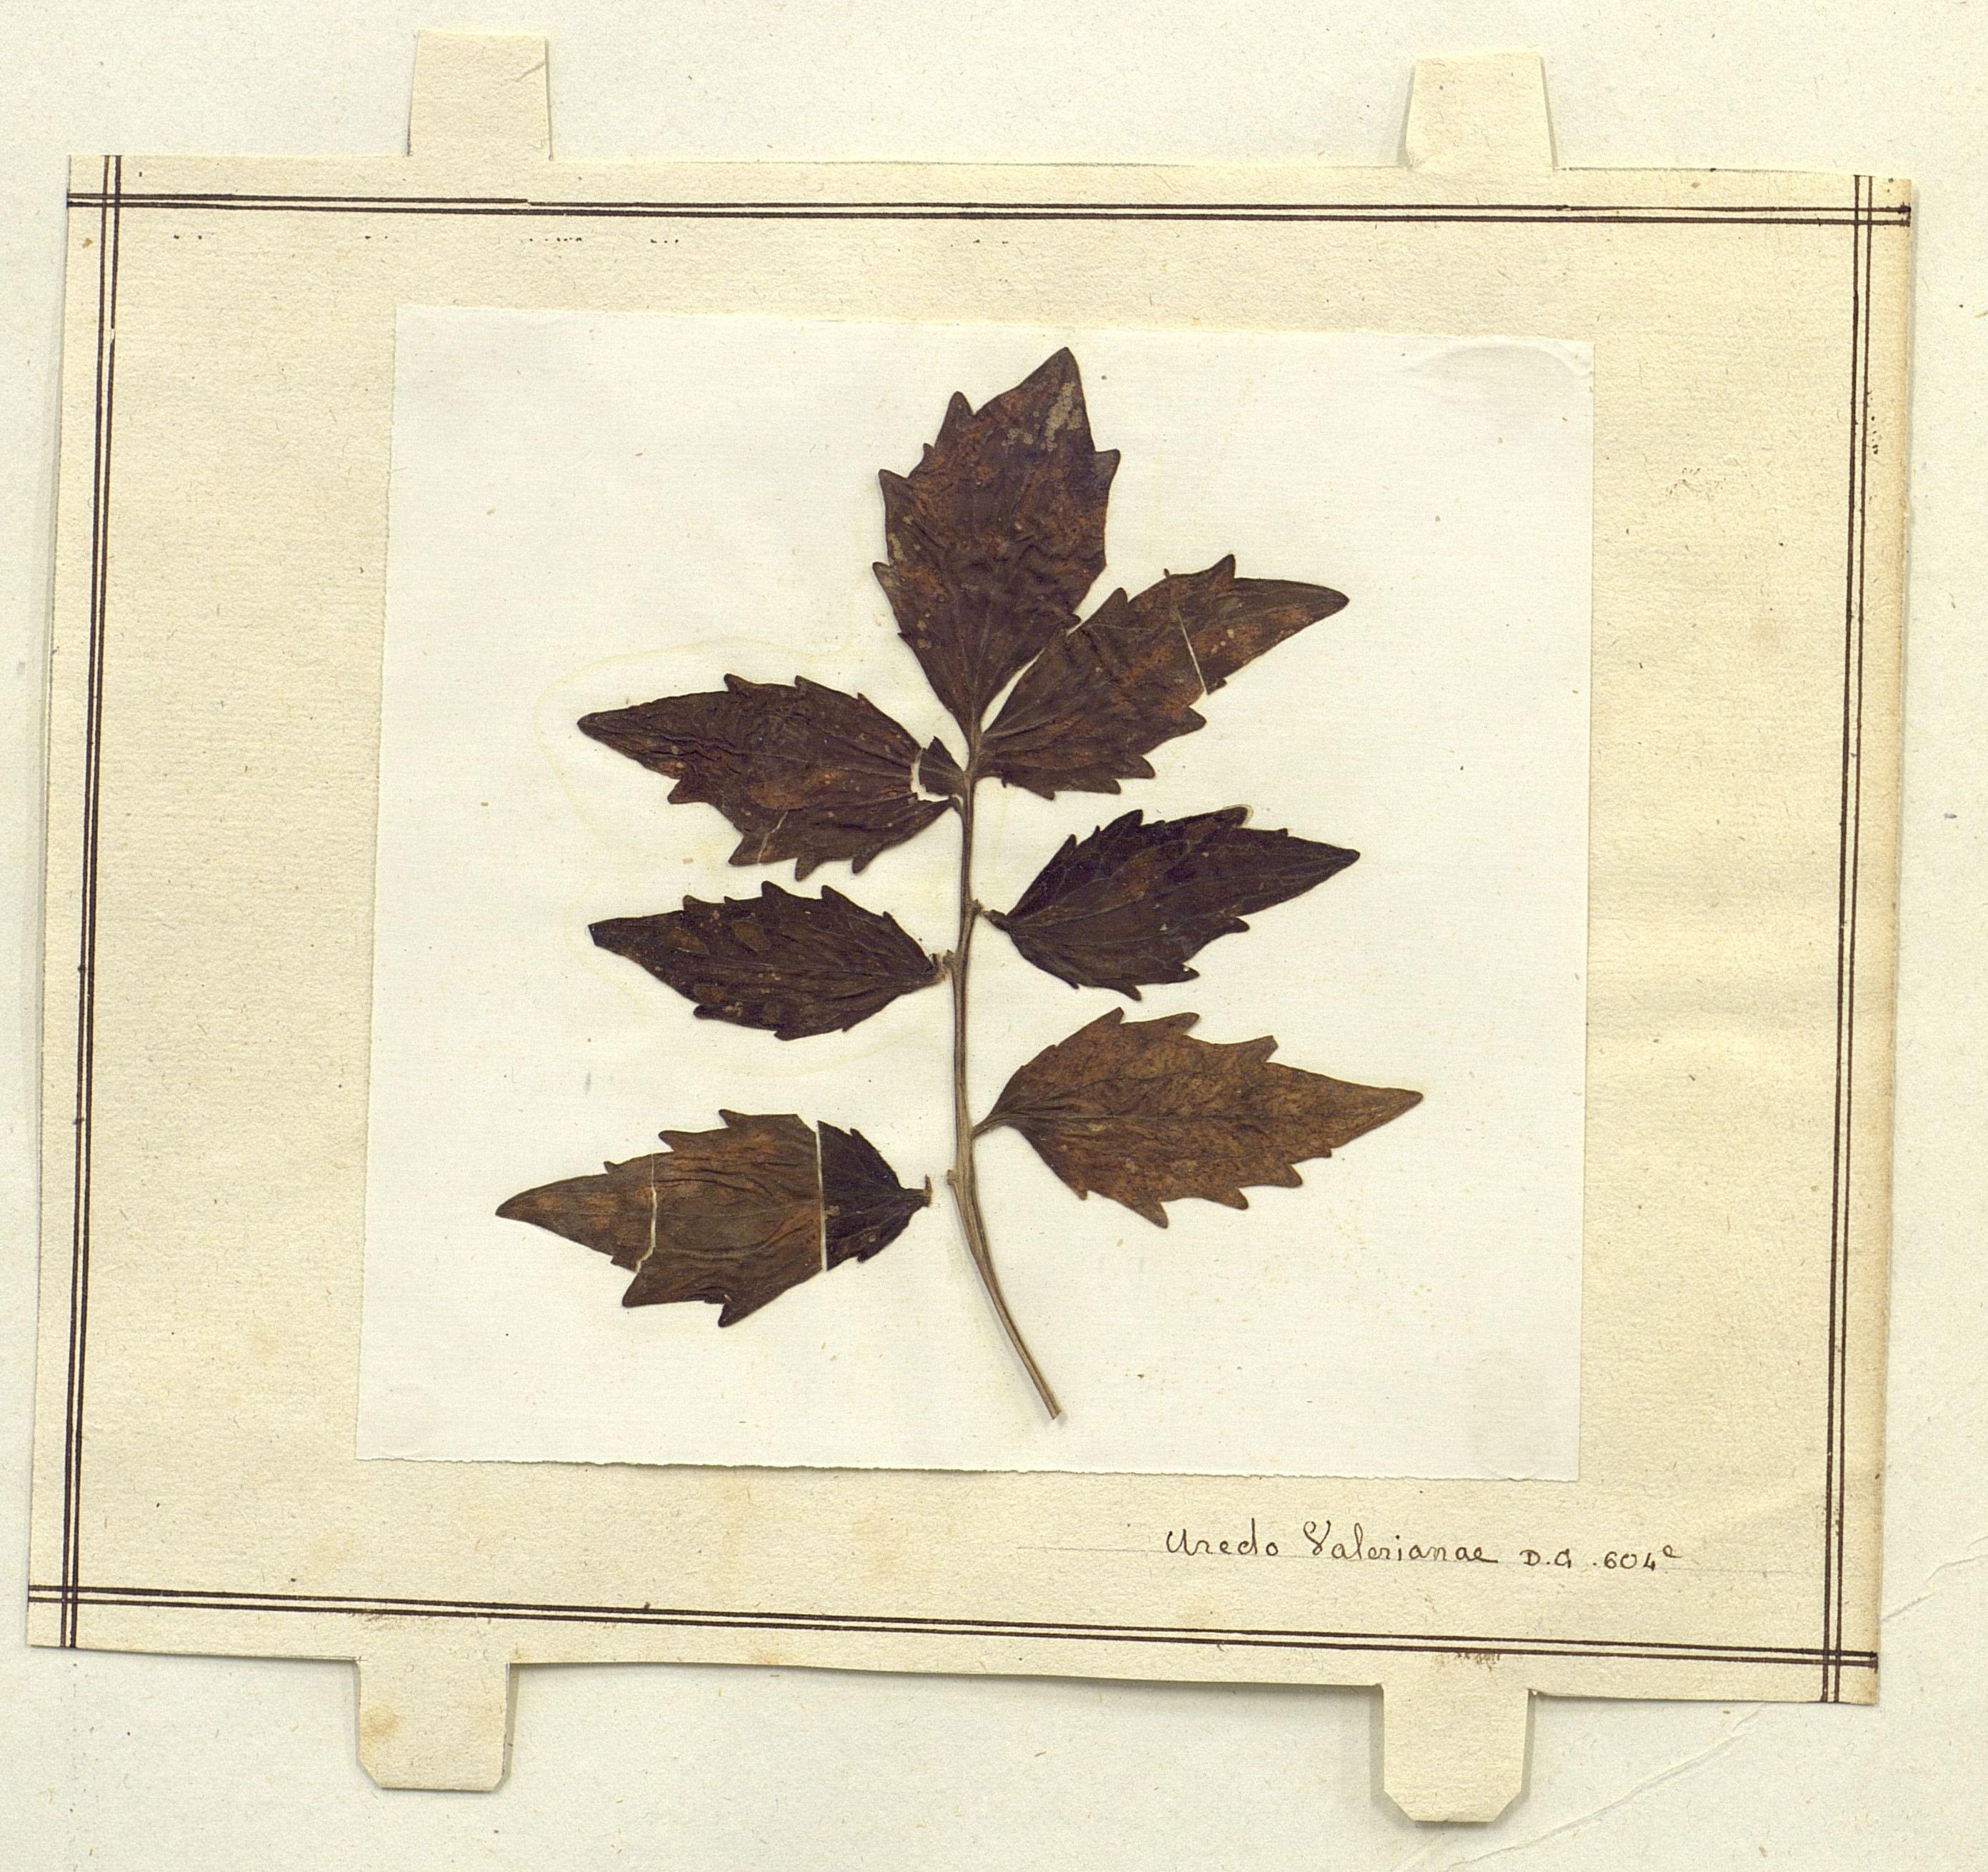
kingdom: Fungi
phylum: Basidiomycota
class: Pucciniomycetes
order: Pucciniales
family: Pucciniaceae
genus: Uromyces
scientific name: Uromyces valerianae
